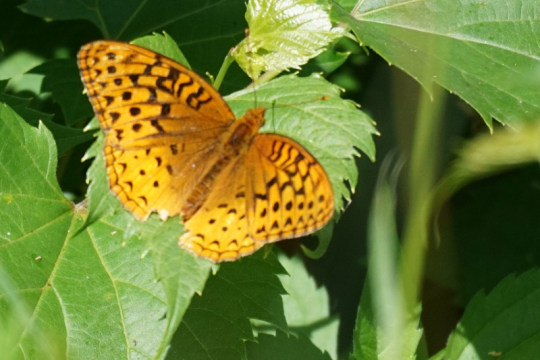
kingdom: Animalia
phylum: Arthropoda
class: Insecta
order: Lepidoptera
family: Nymphalidae
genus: Speyeria
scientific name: Speyeria cybele
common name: Great Spangled Fritillary
